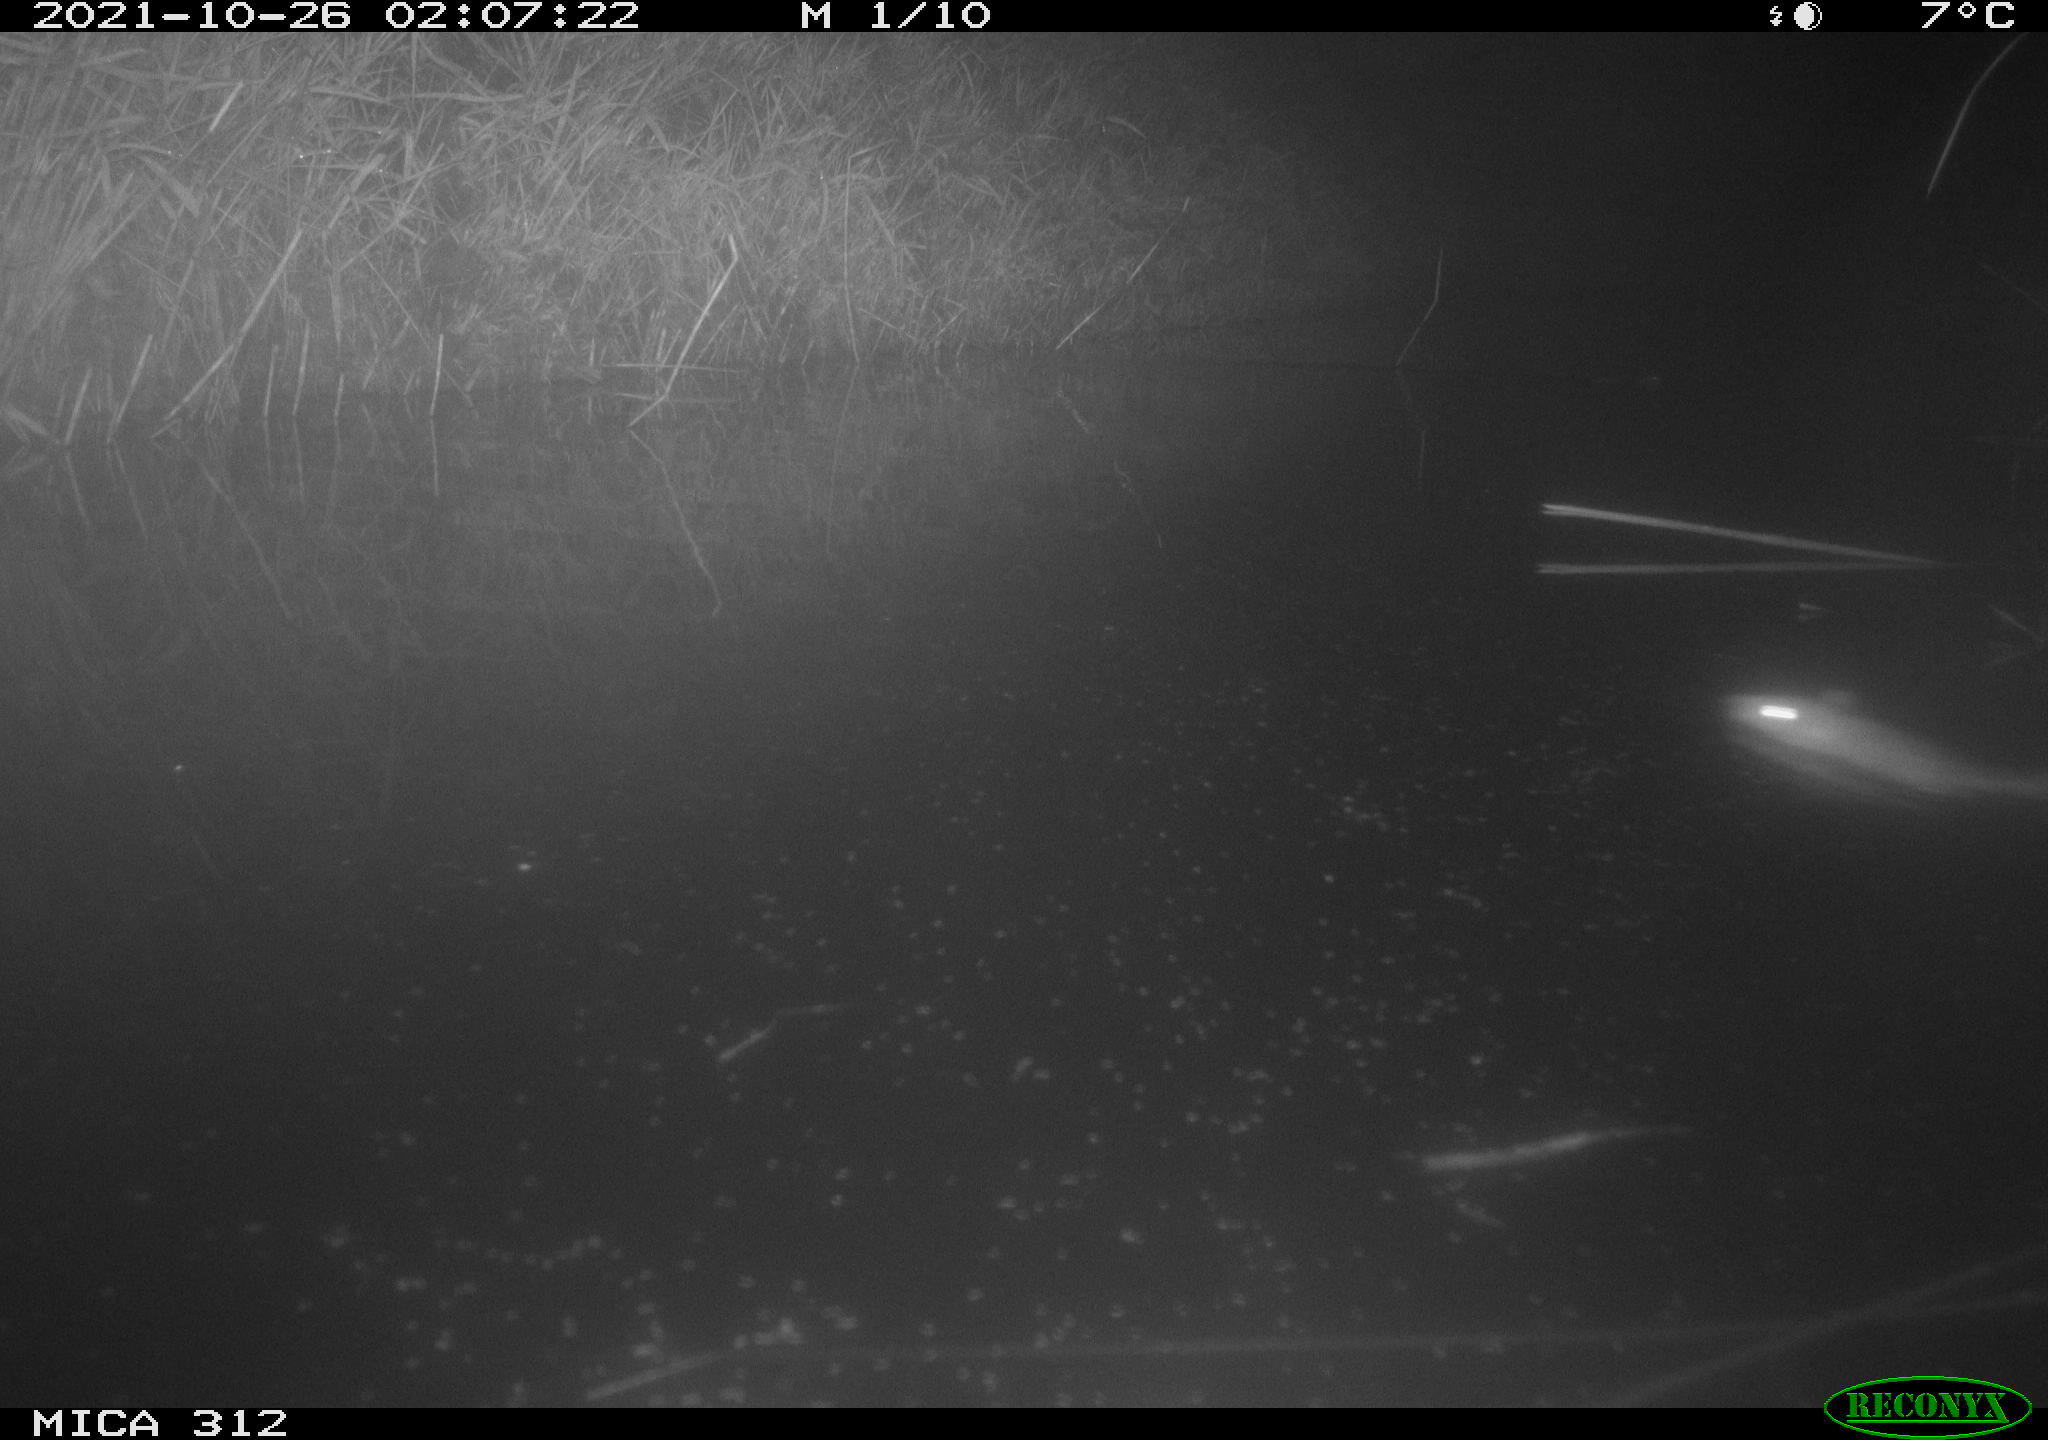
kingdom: Animalia
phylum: Chordata
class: Mammalia
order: Rodentia
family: Muridae
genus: Rattus
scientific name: Rattus norvegicus
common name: Brown rat
